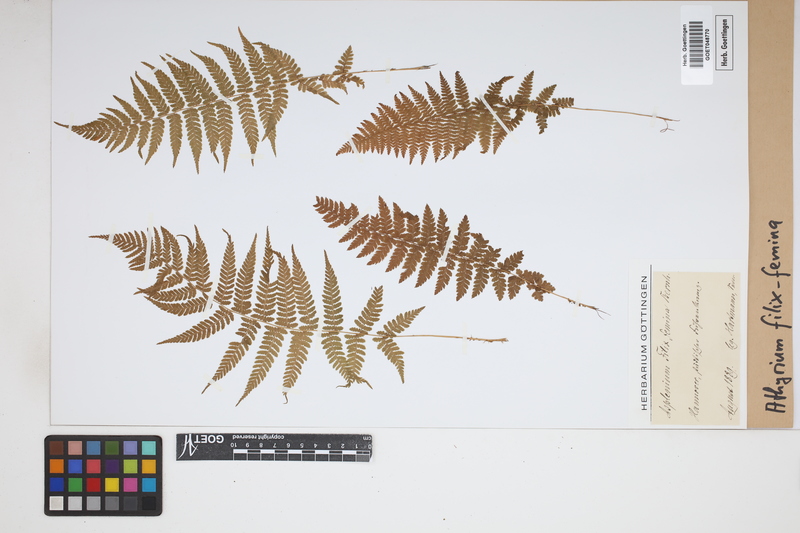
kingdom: Plantae
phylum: Tracheophyta
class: Polypodiopsida
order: Polypodiales
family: Athyriaceae
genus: Athyrium
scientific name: Athyrium filix-femina
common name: Lady fern
